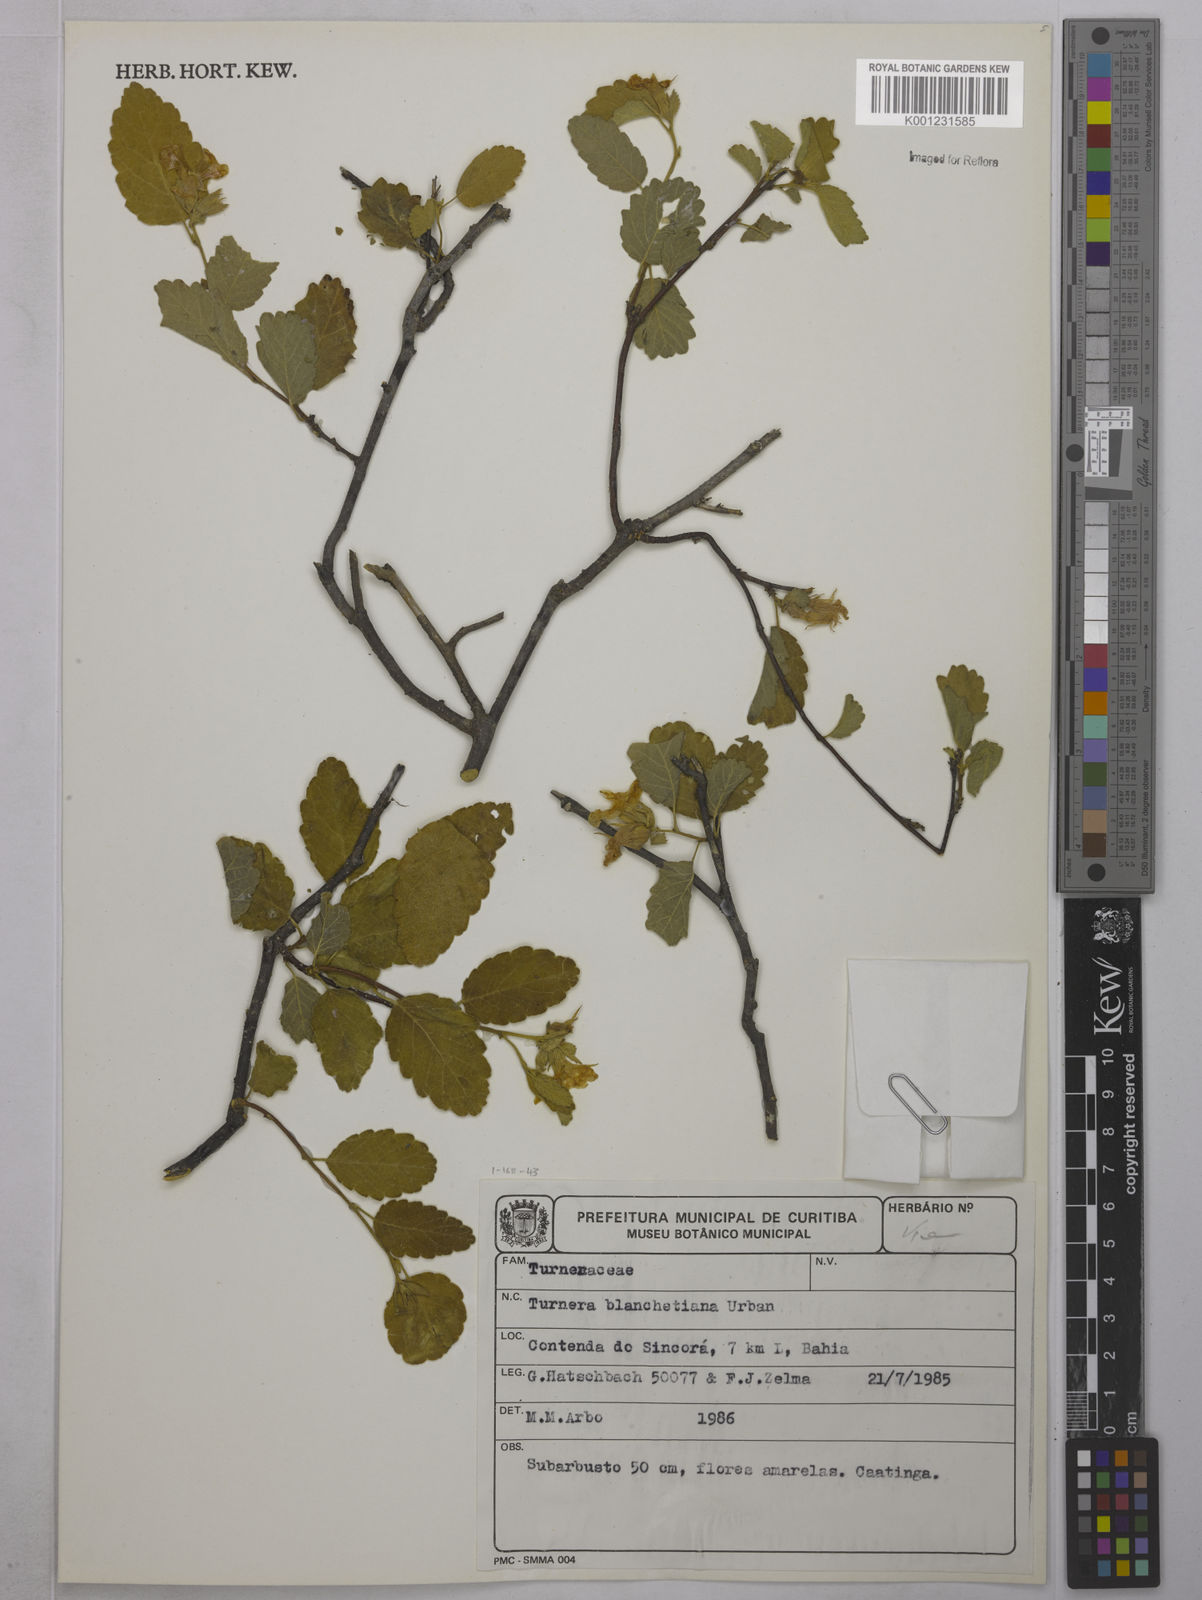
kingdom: Plantae
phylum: Tracheophyta
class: Magnoliopsida
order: Malpighiales
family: Turneraceae
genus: Turnera
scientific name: Turnera blanchetiana
